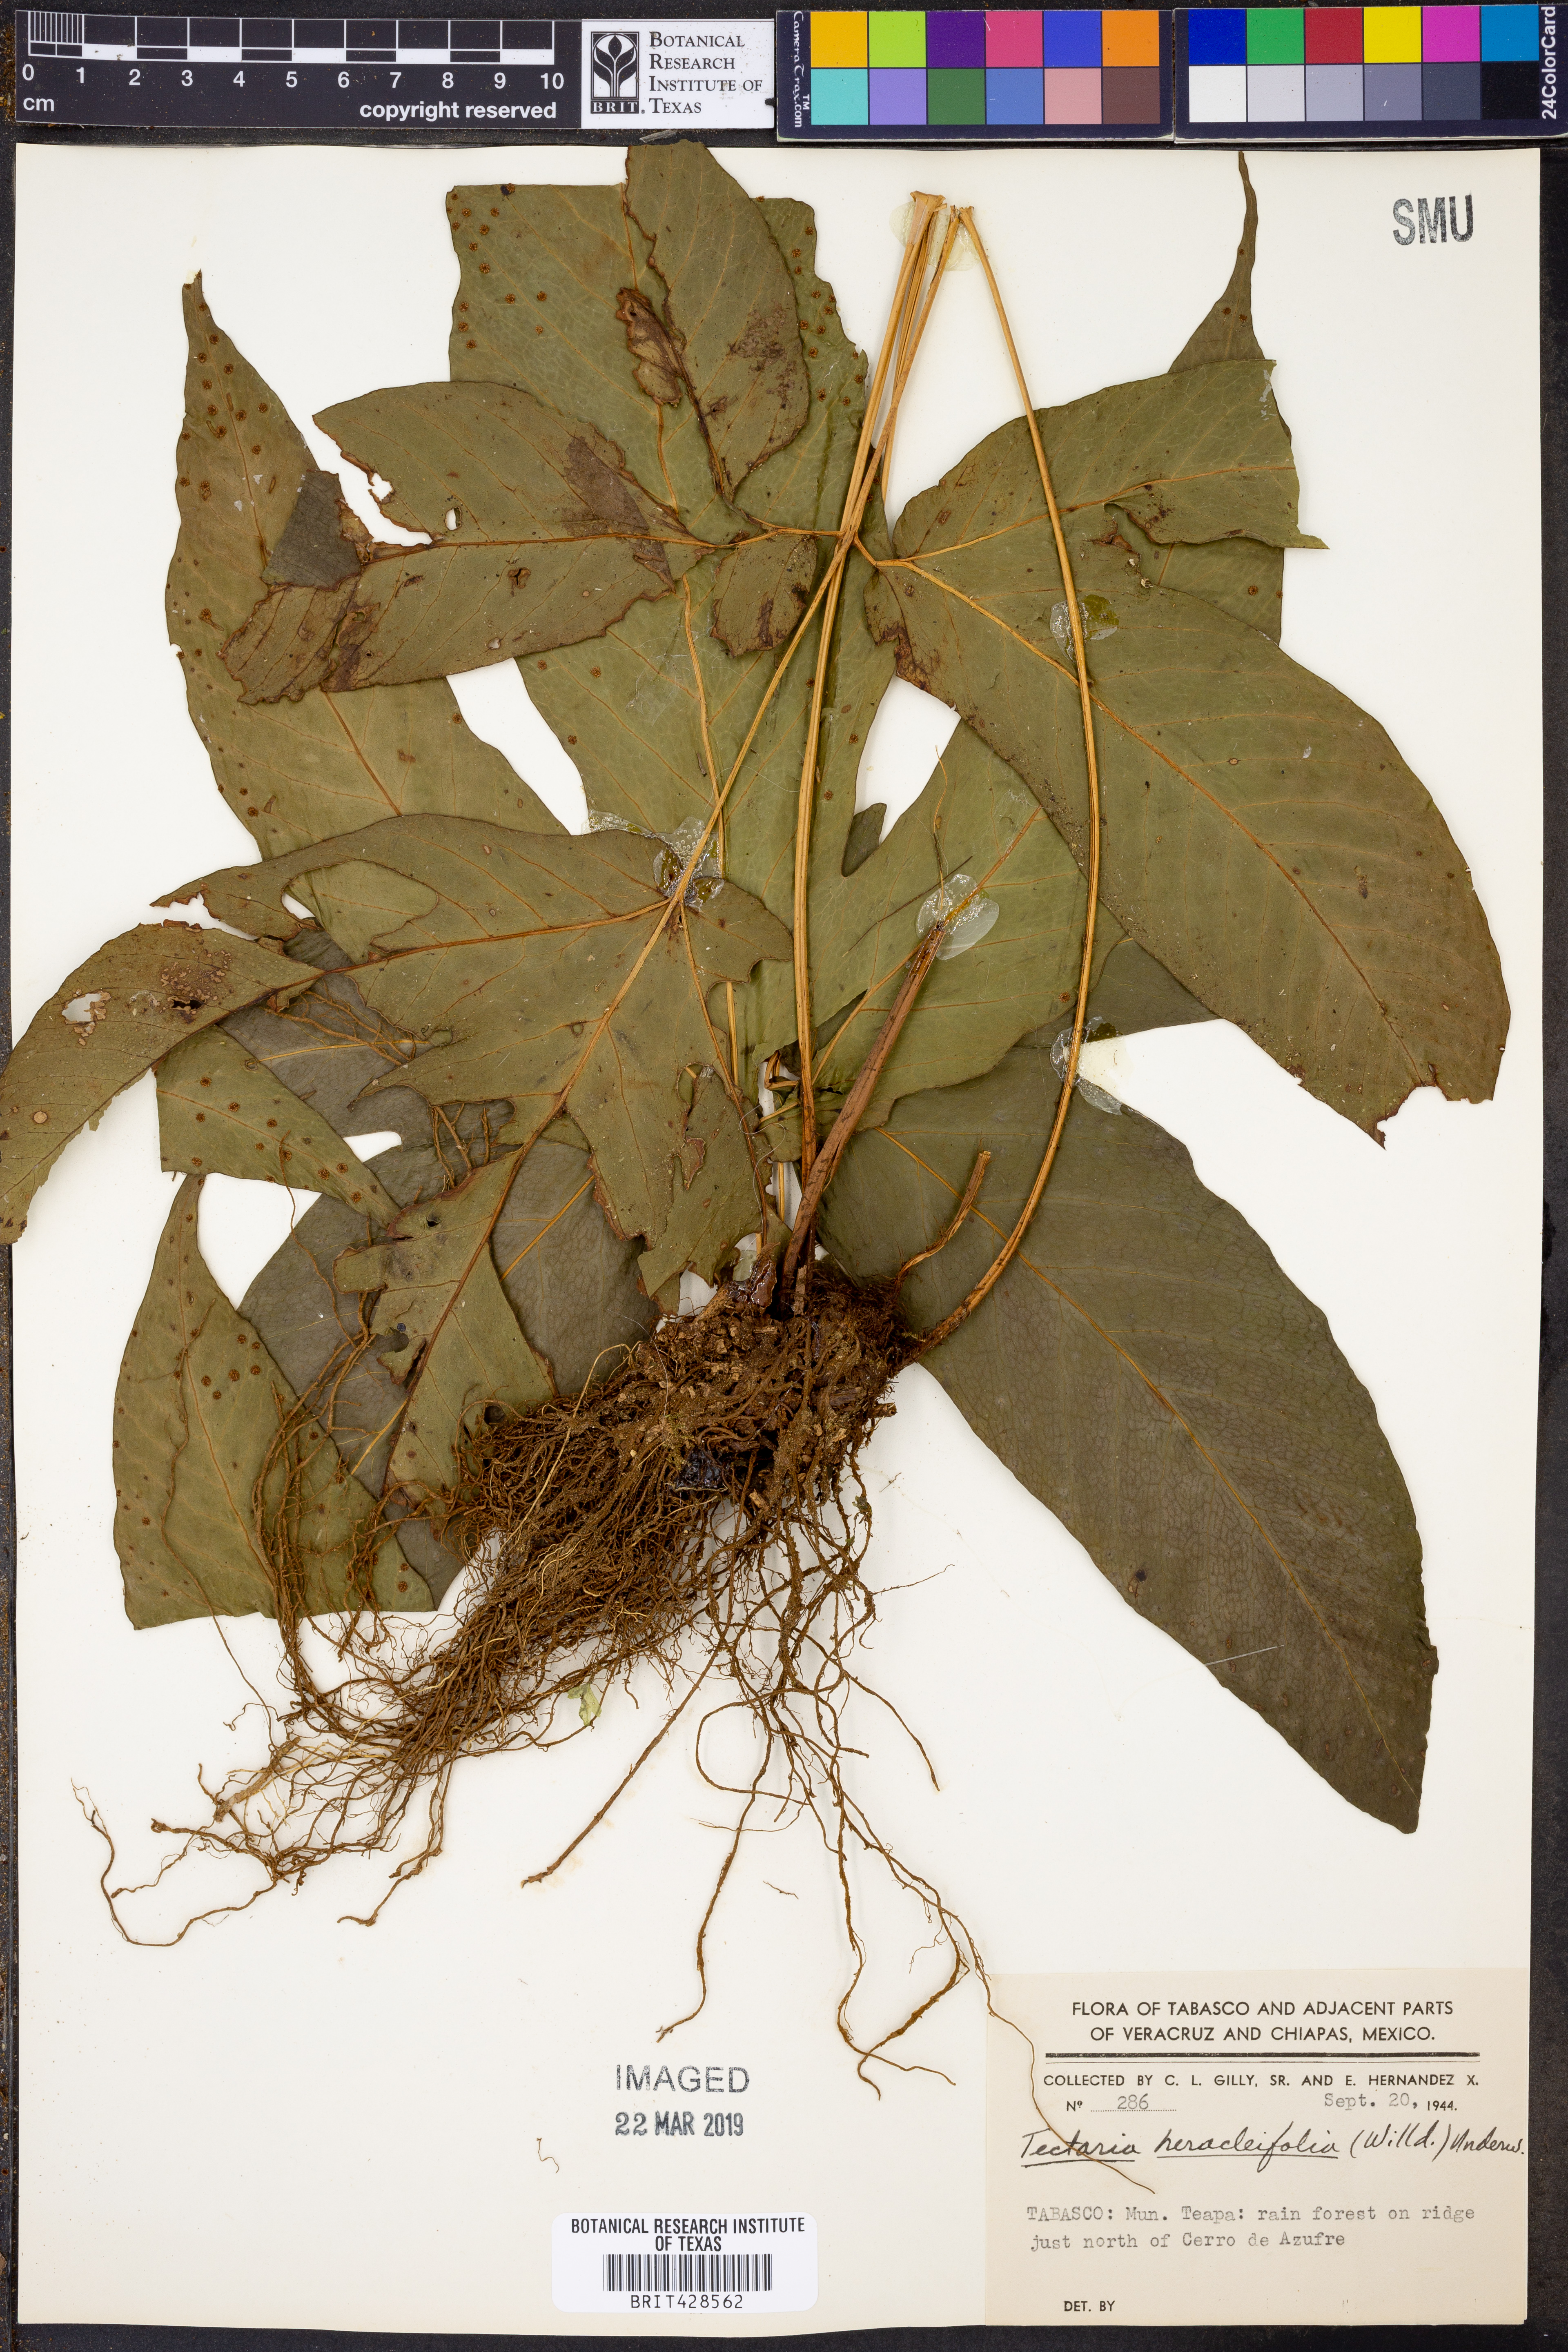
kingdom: Plantae
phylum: Tracheophyta
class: Polypodiopsida
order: Polypodiales
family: Tectariaceae
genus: Tectaria
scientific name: Tectaria heracleifolia
